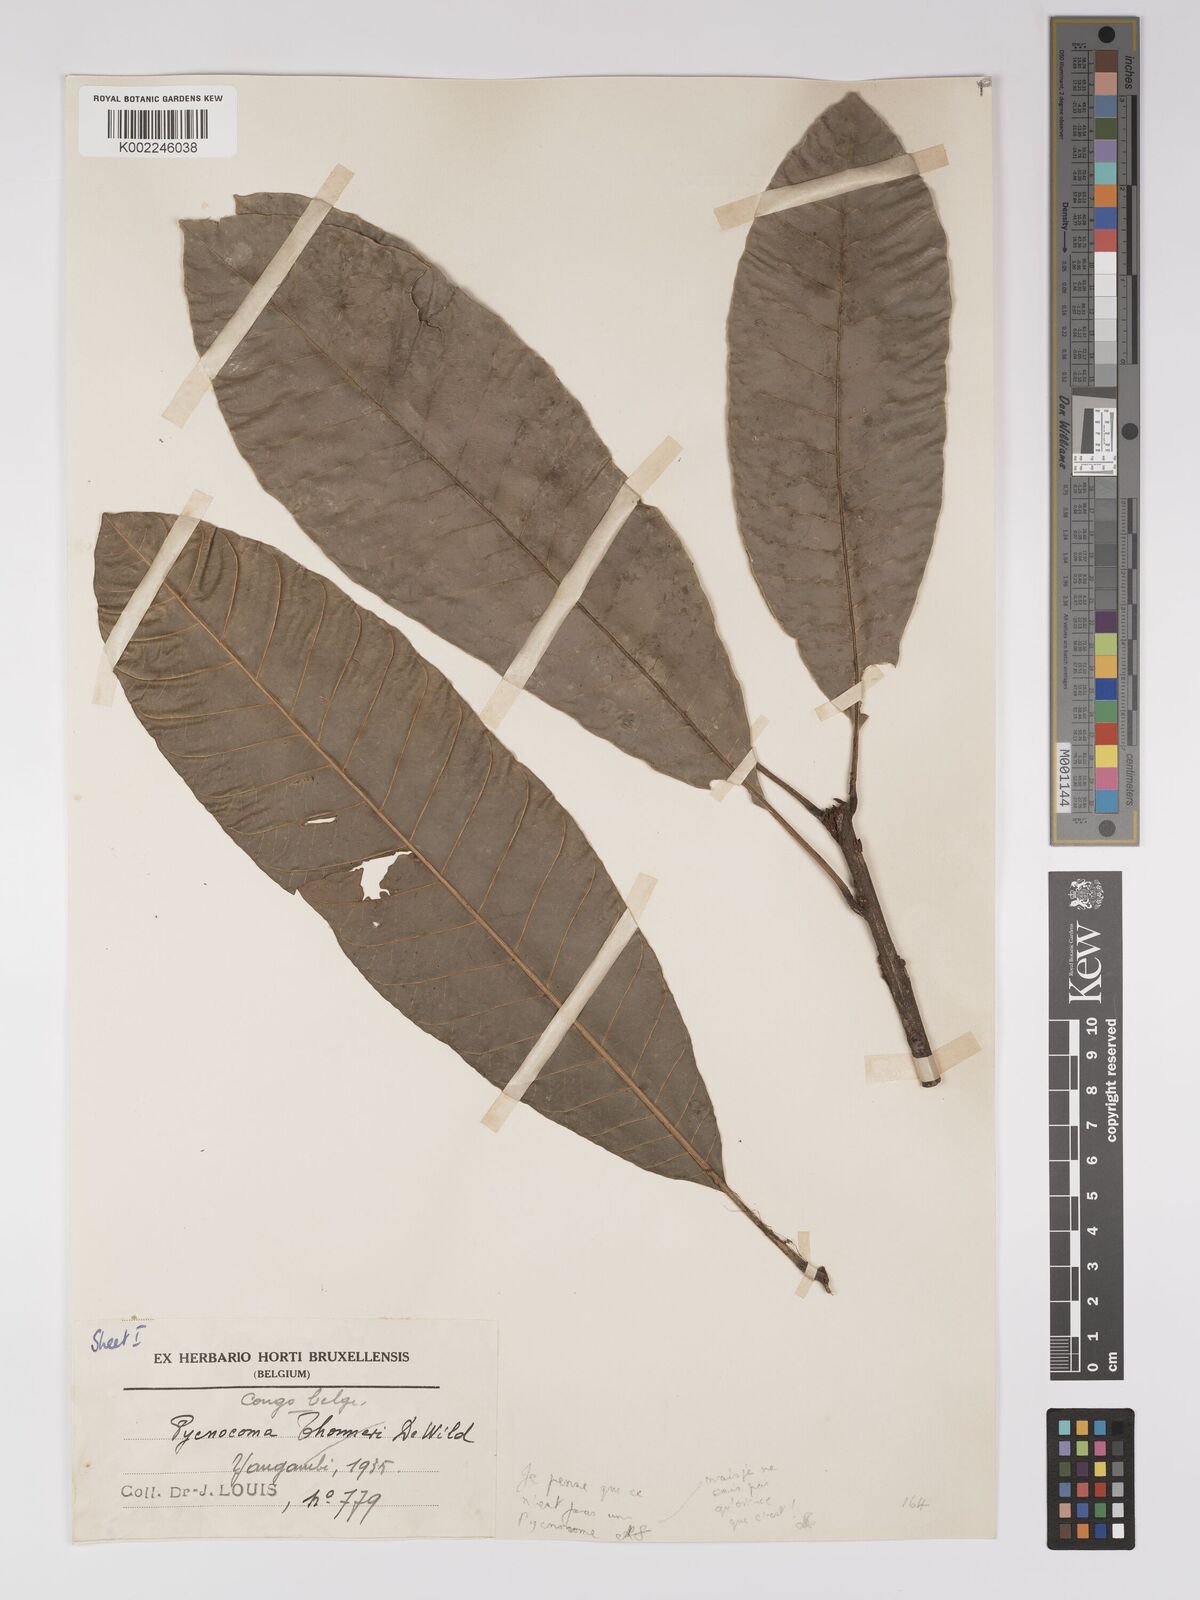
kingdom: Plantae
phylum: Tracheophyta
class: Magnoliopsida
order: Malpighiales
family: Euphorbiaceae
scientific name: Euphorbiaceae
